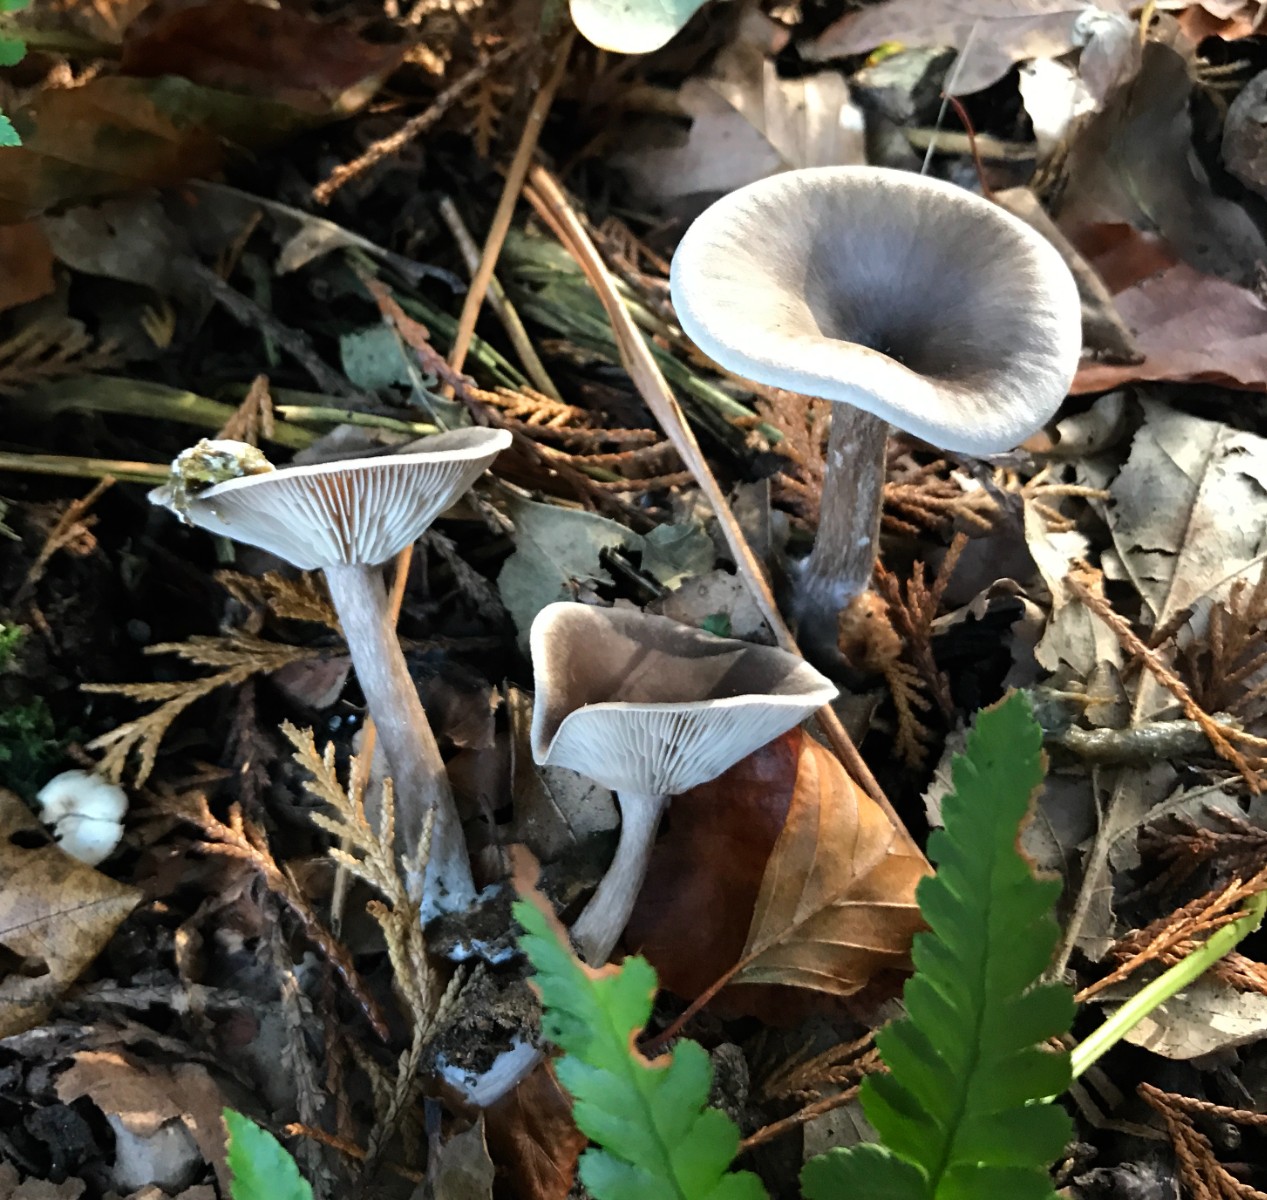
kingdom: Fungi
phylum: Basidiomycota
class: Agaricomycetes
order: Agaricales
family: Pseudoclitocybaceae
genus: Pseudoclitocybe
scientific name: Pseudoclitocybe cyathiformis
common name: almindelig bægertragthat
